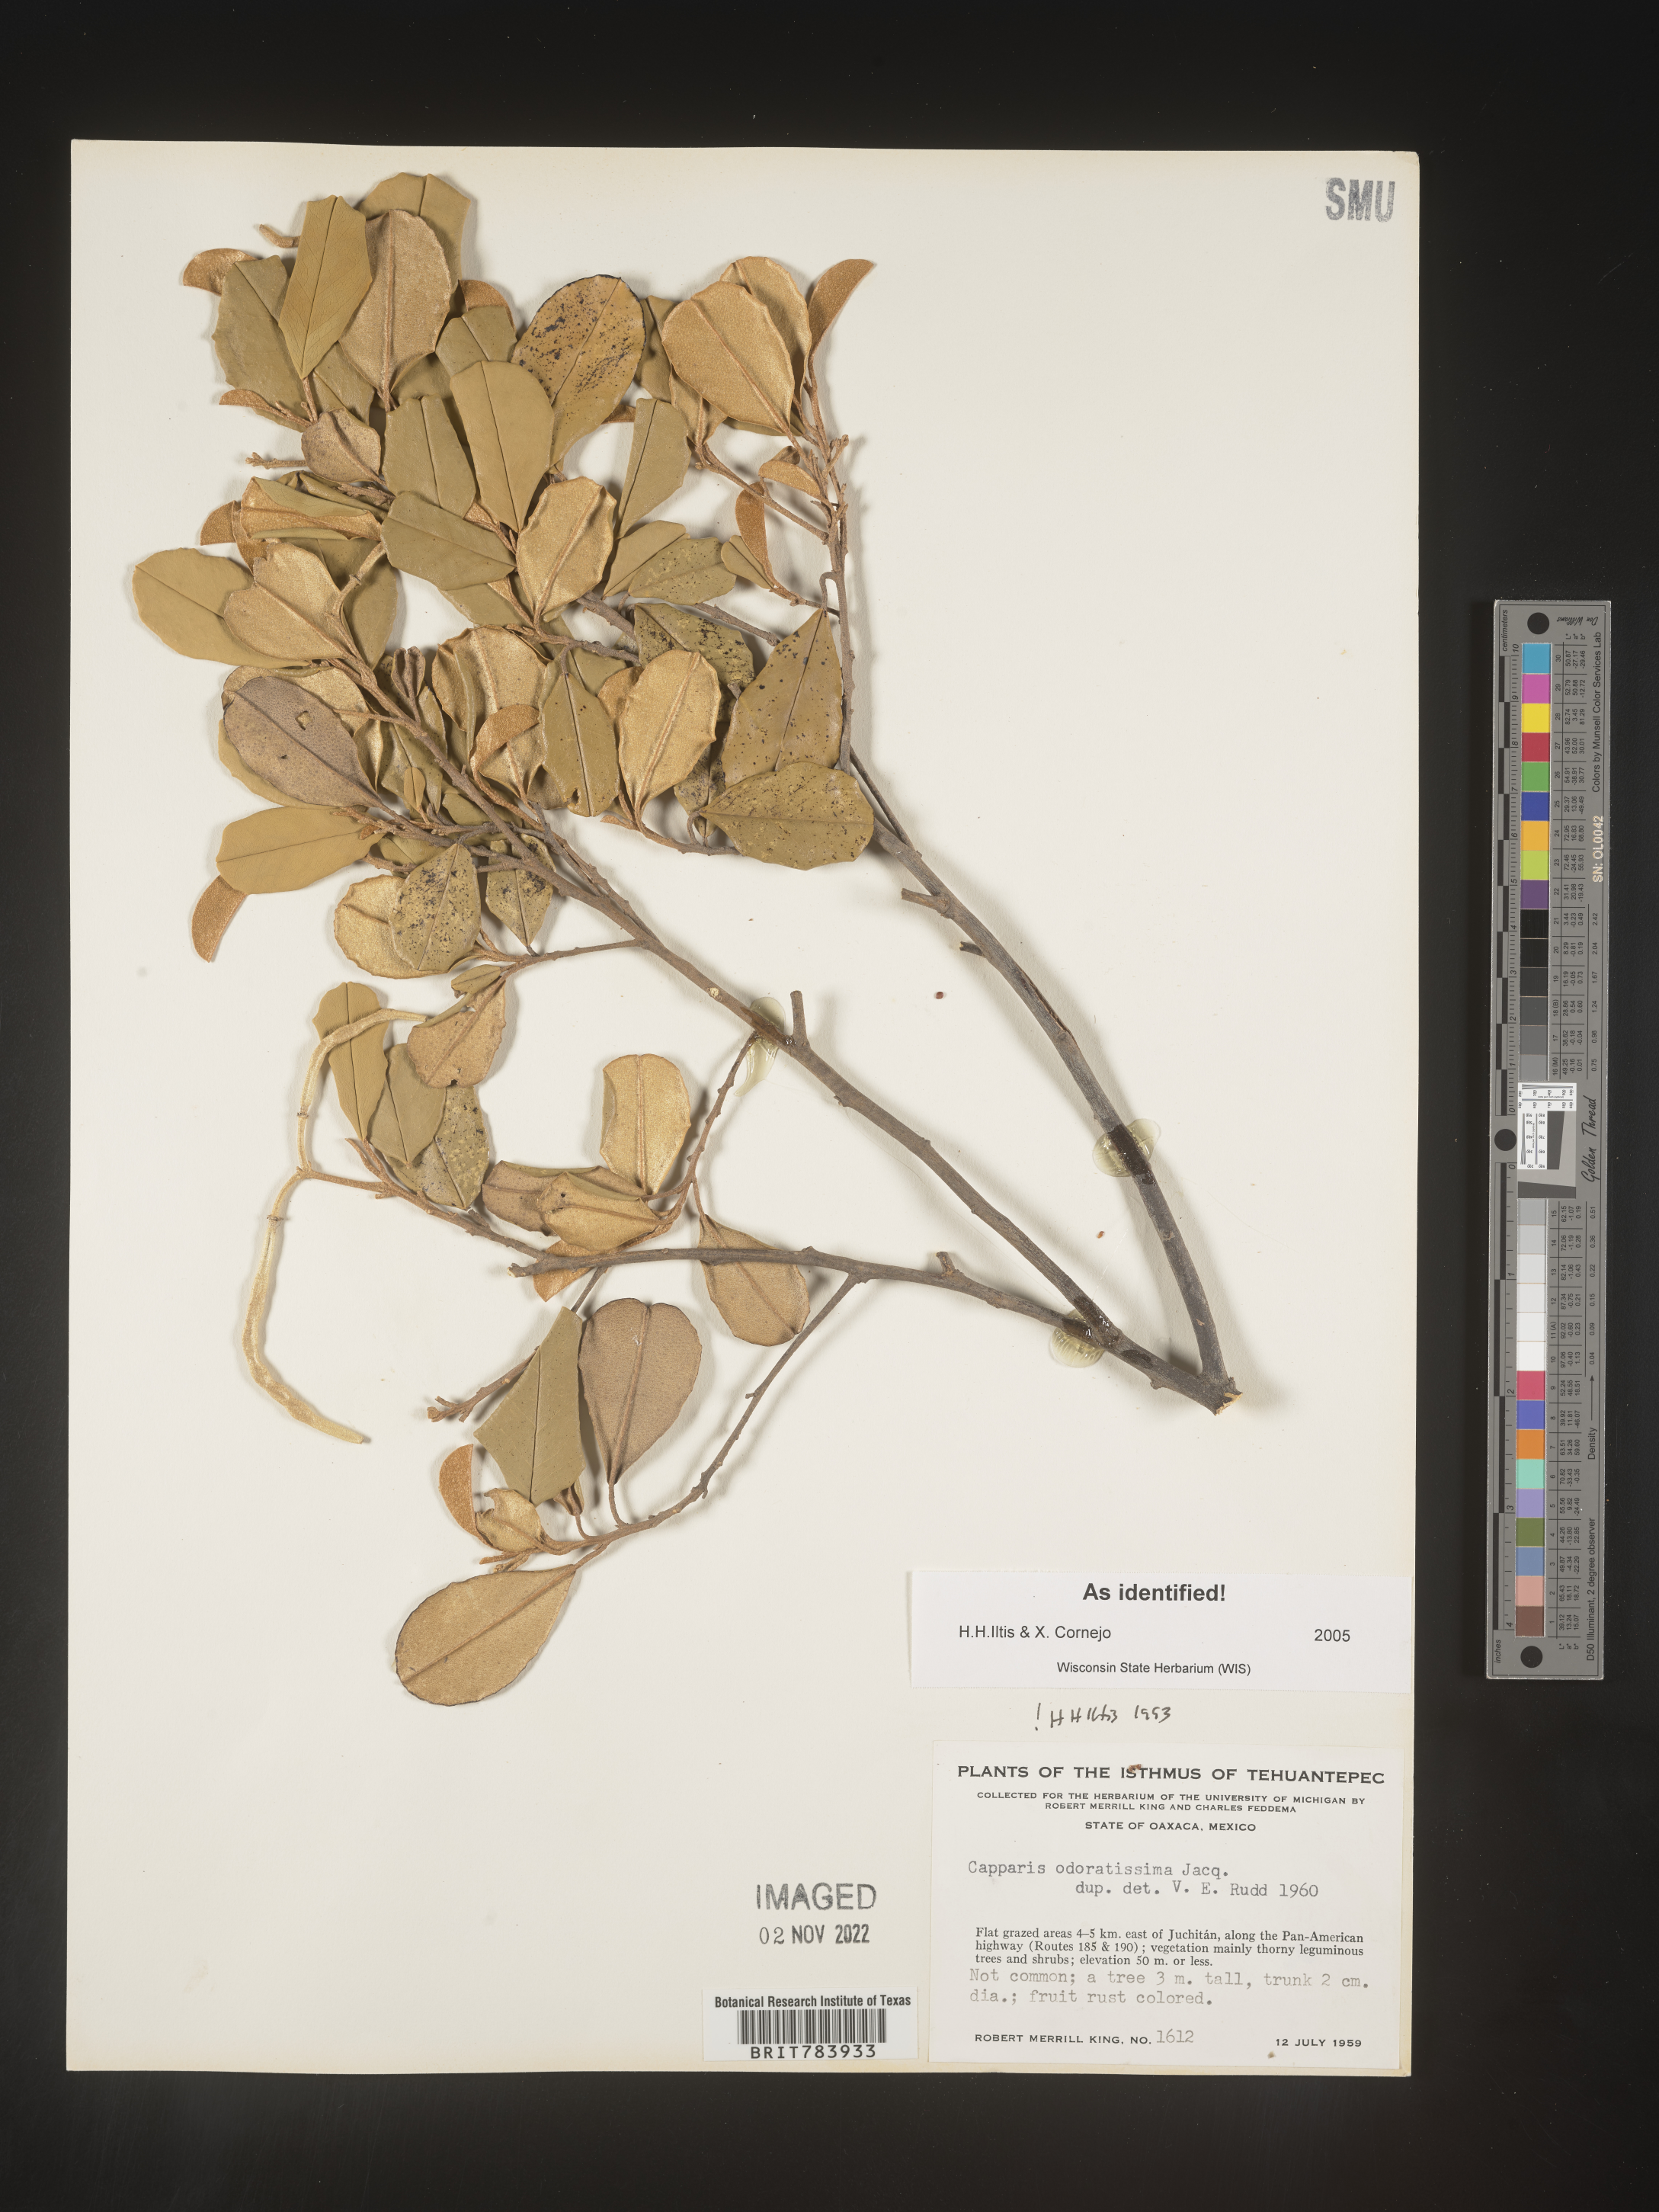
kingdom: Plantae
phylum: Tracheophyta
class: Magnoliopsida
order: Brassicales
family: Capparaceae
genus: Capparis
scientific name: Capparis
